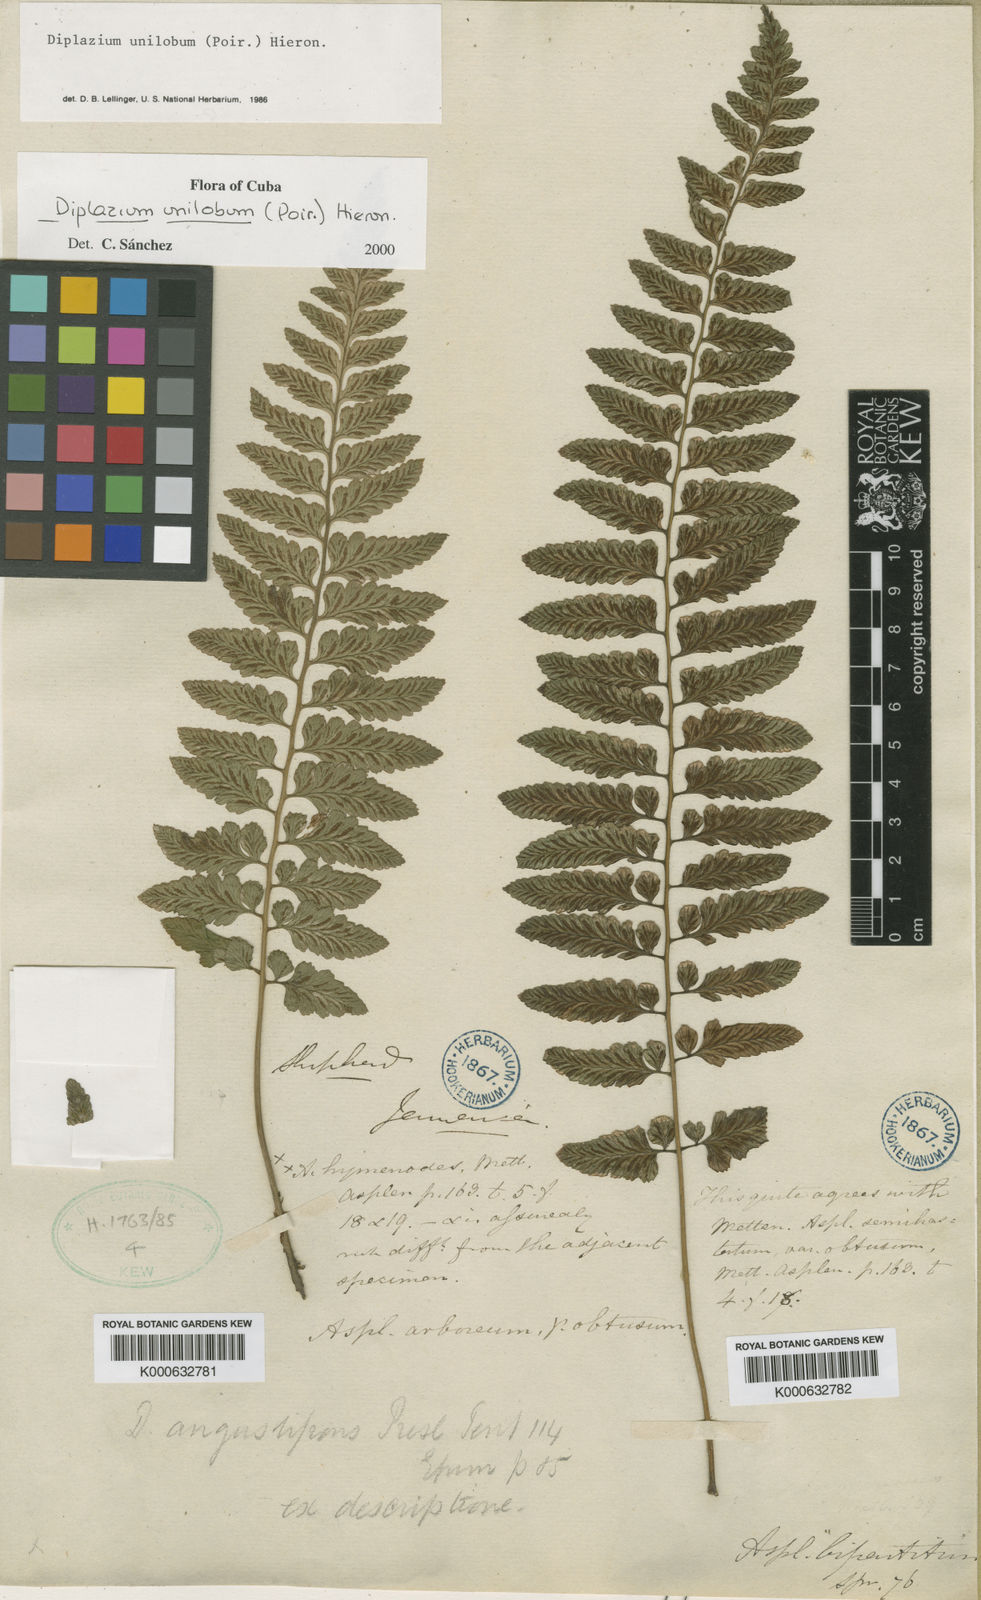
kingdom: Plantae
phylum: Tracheophyta
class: Polypodiopsida
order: Polypodiales
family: Athyriaceae
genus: Diplazium
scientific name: Diplazium unilobum
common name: Singlelobe twinsorus fern
